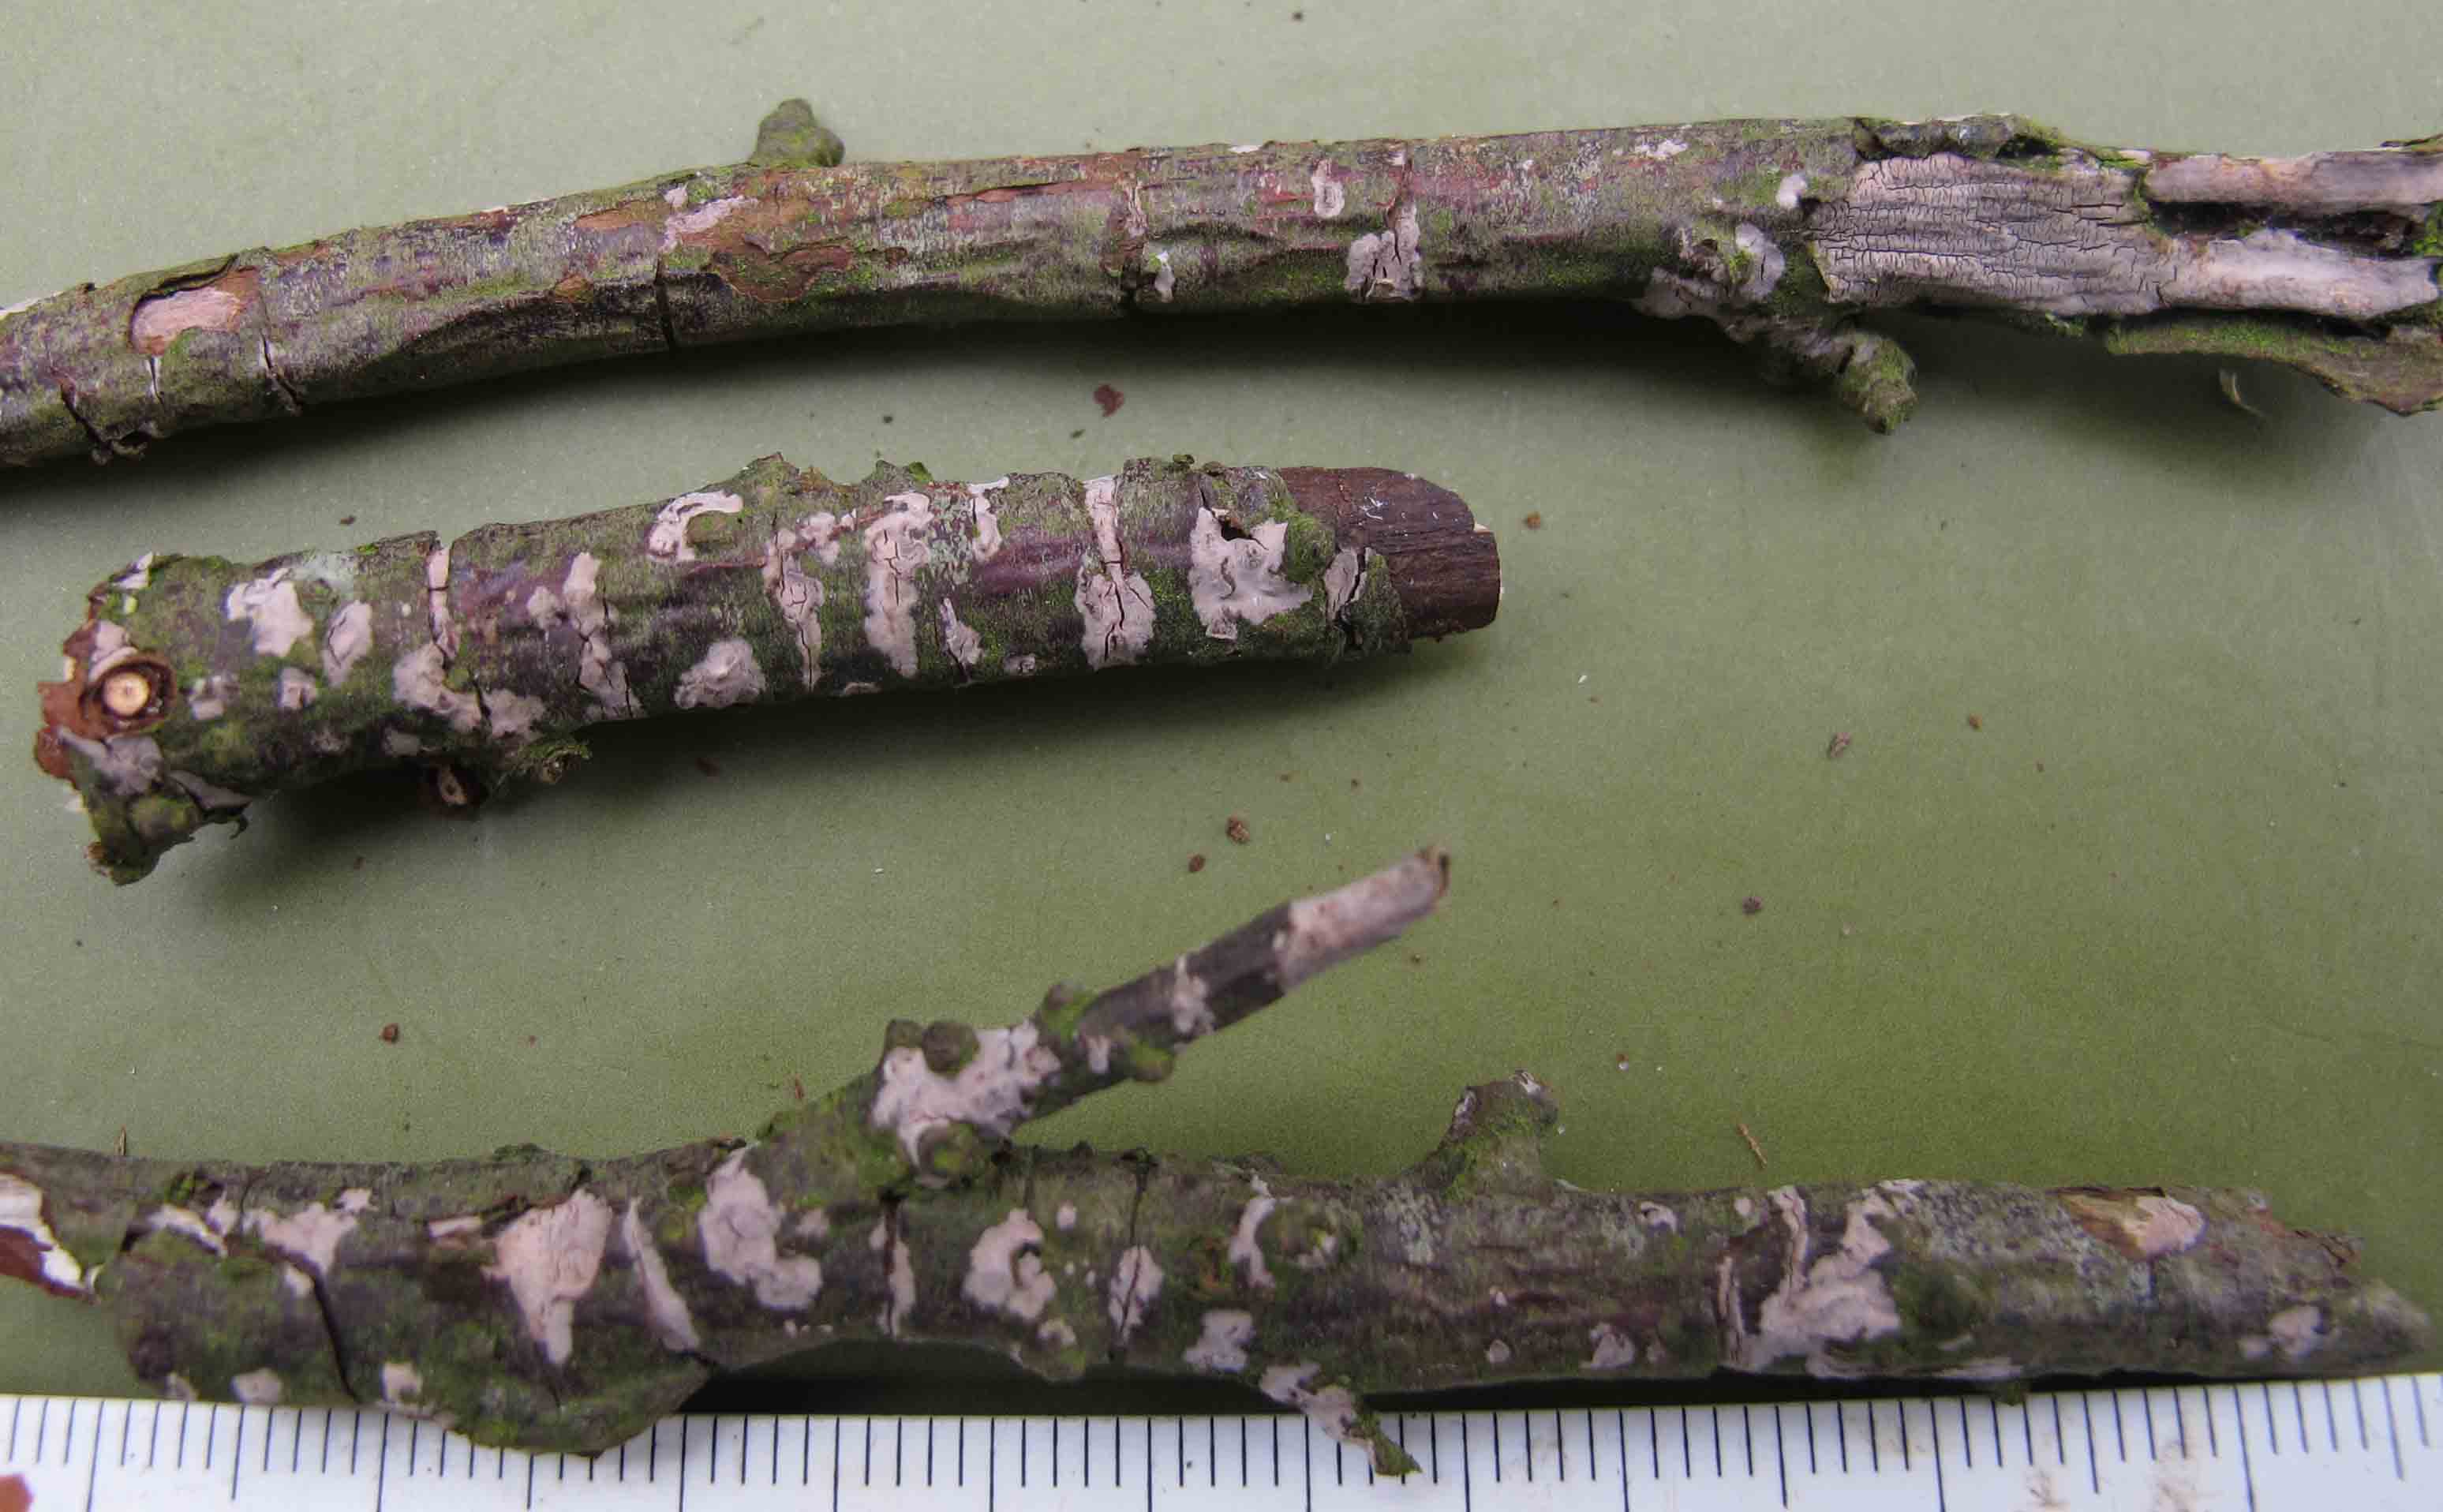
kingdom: Fungi
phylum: Basidiomycota
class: Agaricomycetes
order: Russulales
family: Peniophoraceae
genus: Peniophora
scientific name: Peniophora cinerea
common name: grå voksskind
